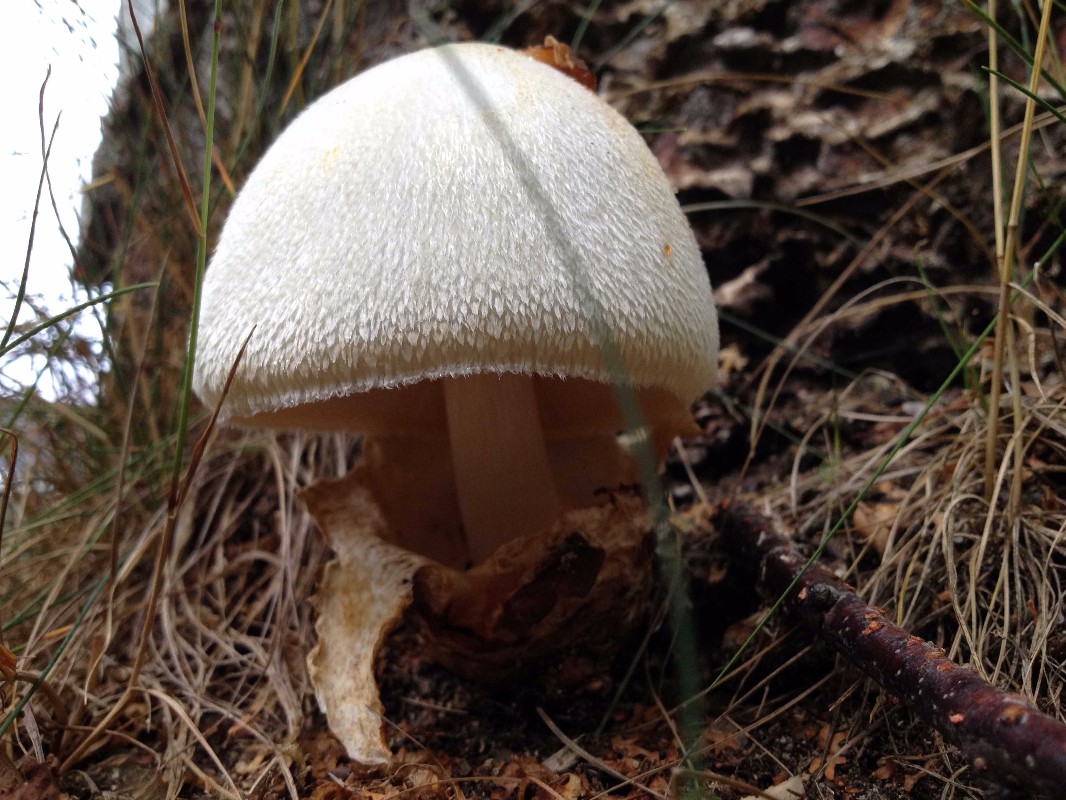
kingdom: Fungi
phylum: Basidiomycota
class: Agaricomycetes
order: Agaricales
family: Pluteaceae
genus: Volvariella
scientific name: Volvariella bombycina
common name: silkehåret posesvamp
